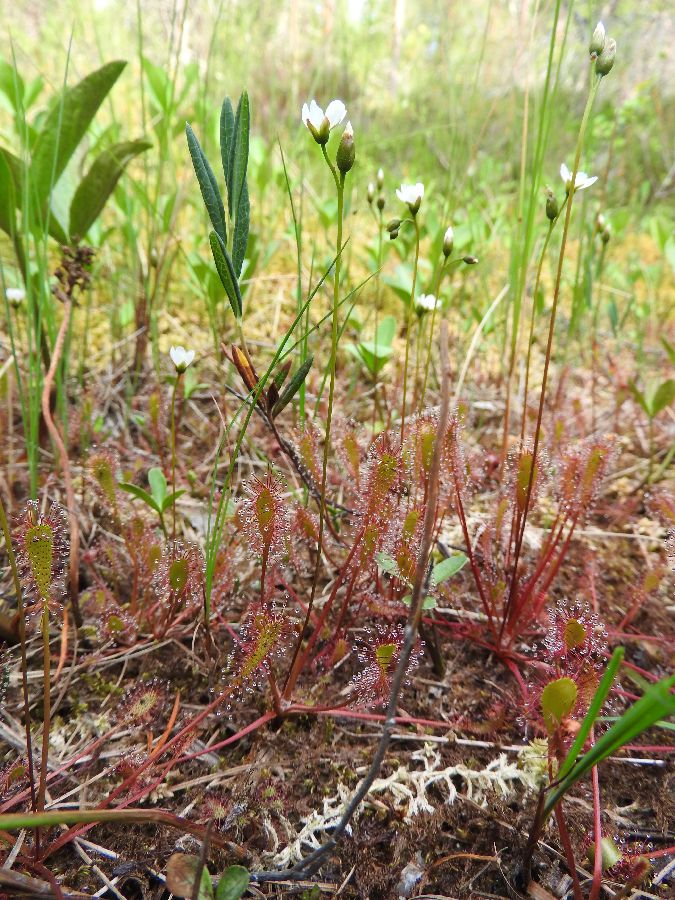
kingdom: Plantae
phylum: Tracheophyta
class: Magnoliopsida
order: Caryophyllales
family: Droseraceae
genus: Drosera
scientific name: Drosera anglica
